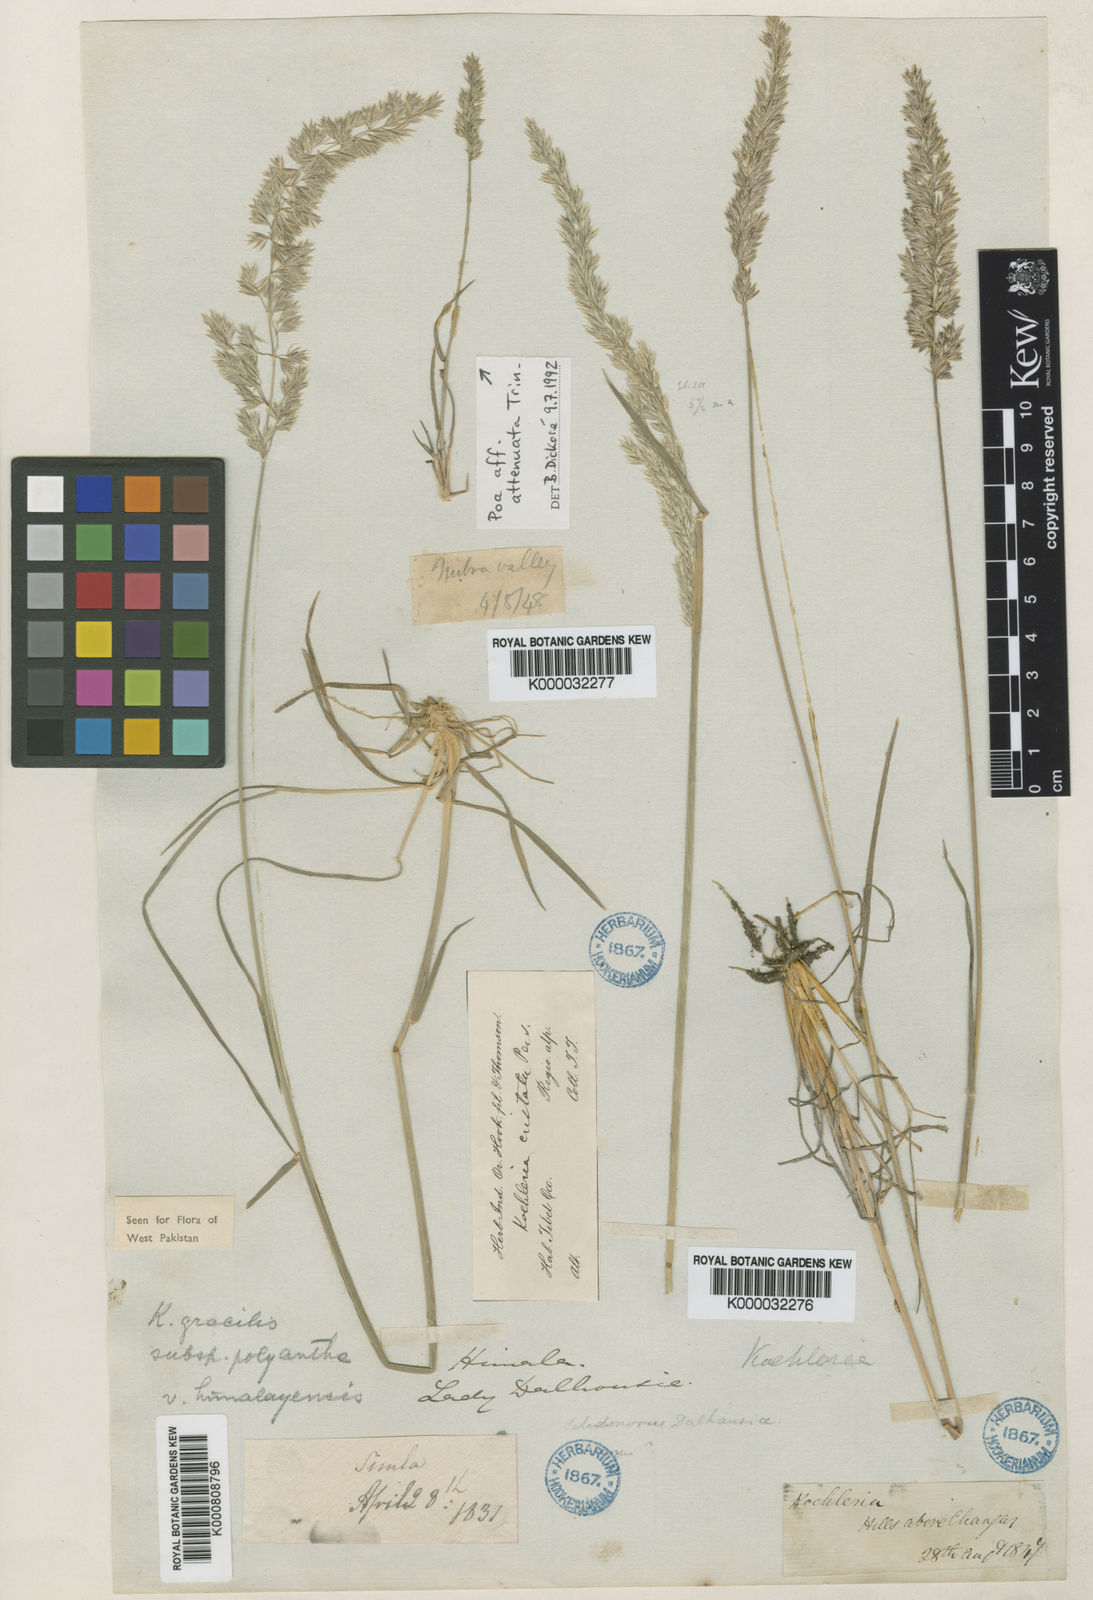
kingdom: Plantae
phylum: Tracheophyta
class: Liliopsida
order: Poales
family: Poaceae
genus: Koeleria
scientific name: Koeleria macrantha
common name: Crested hair-grass
